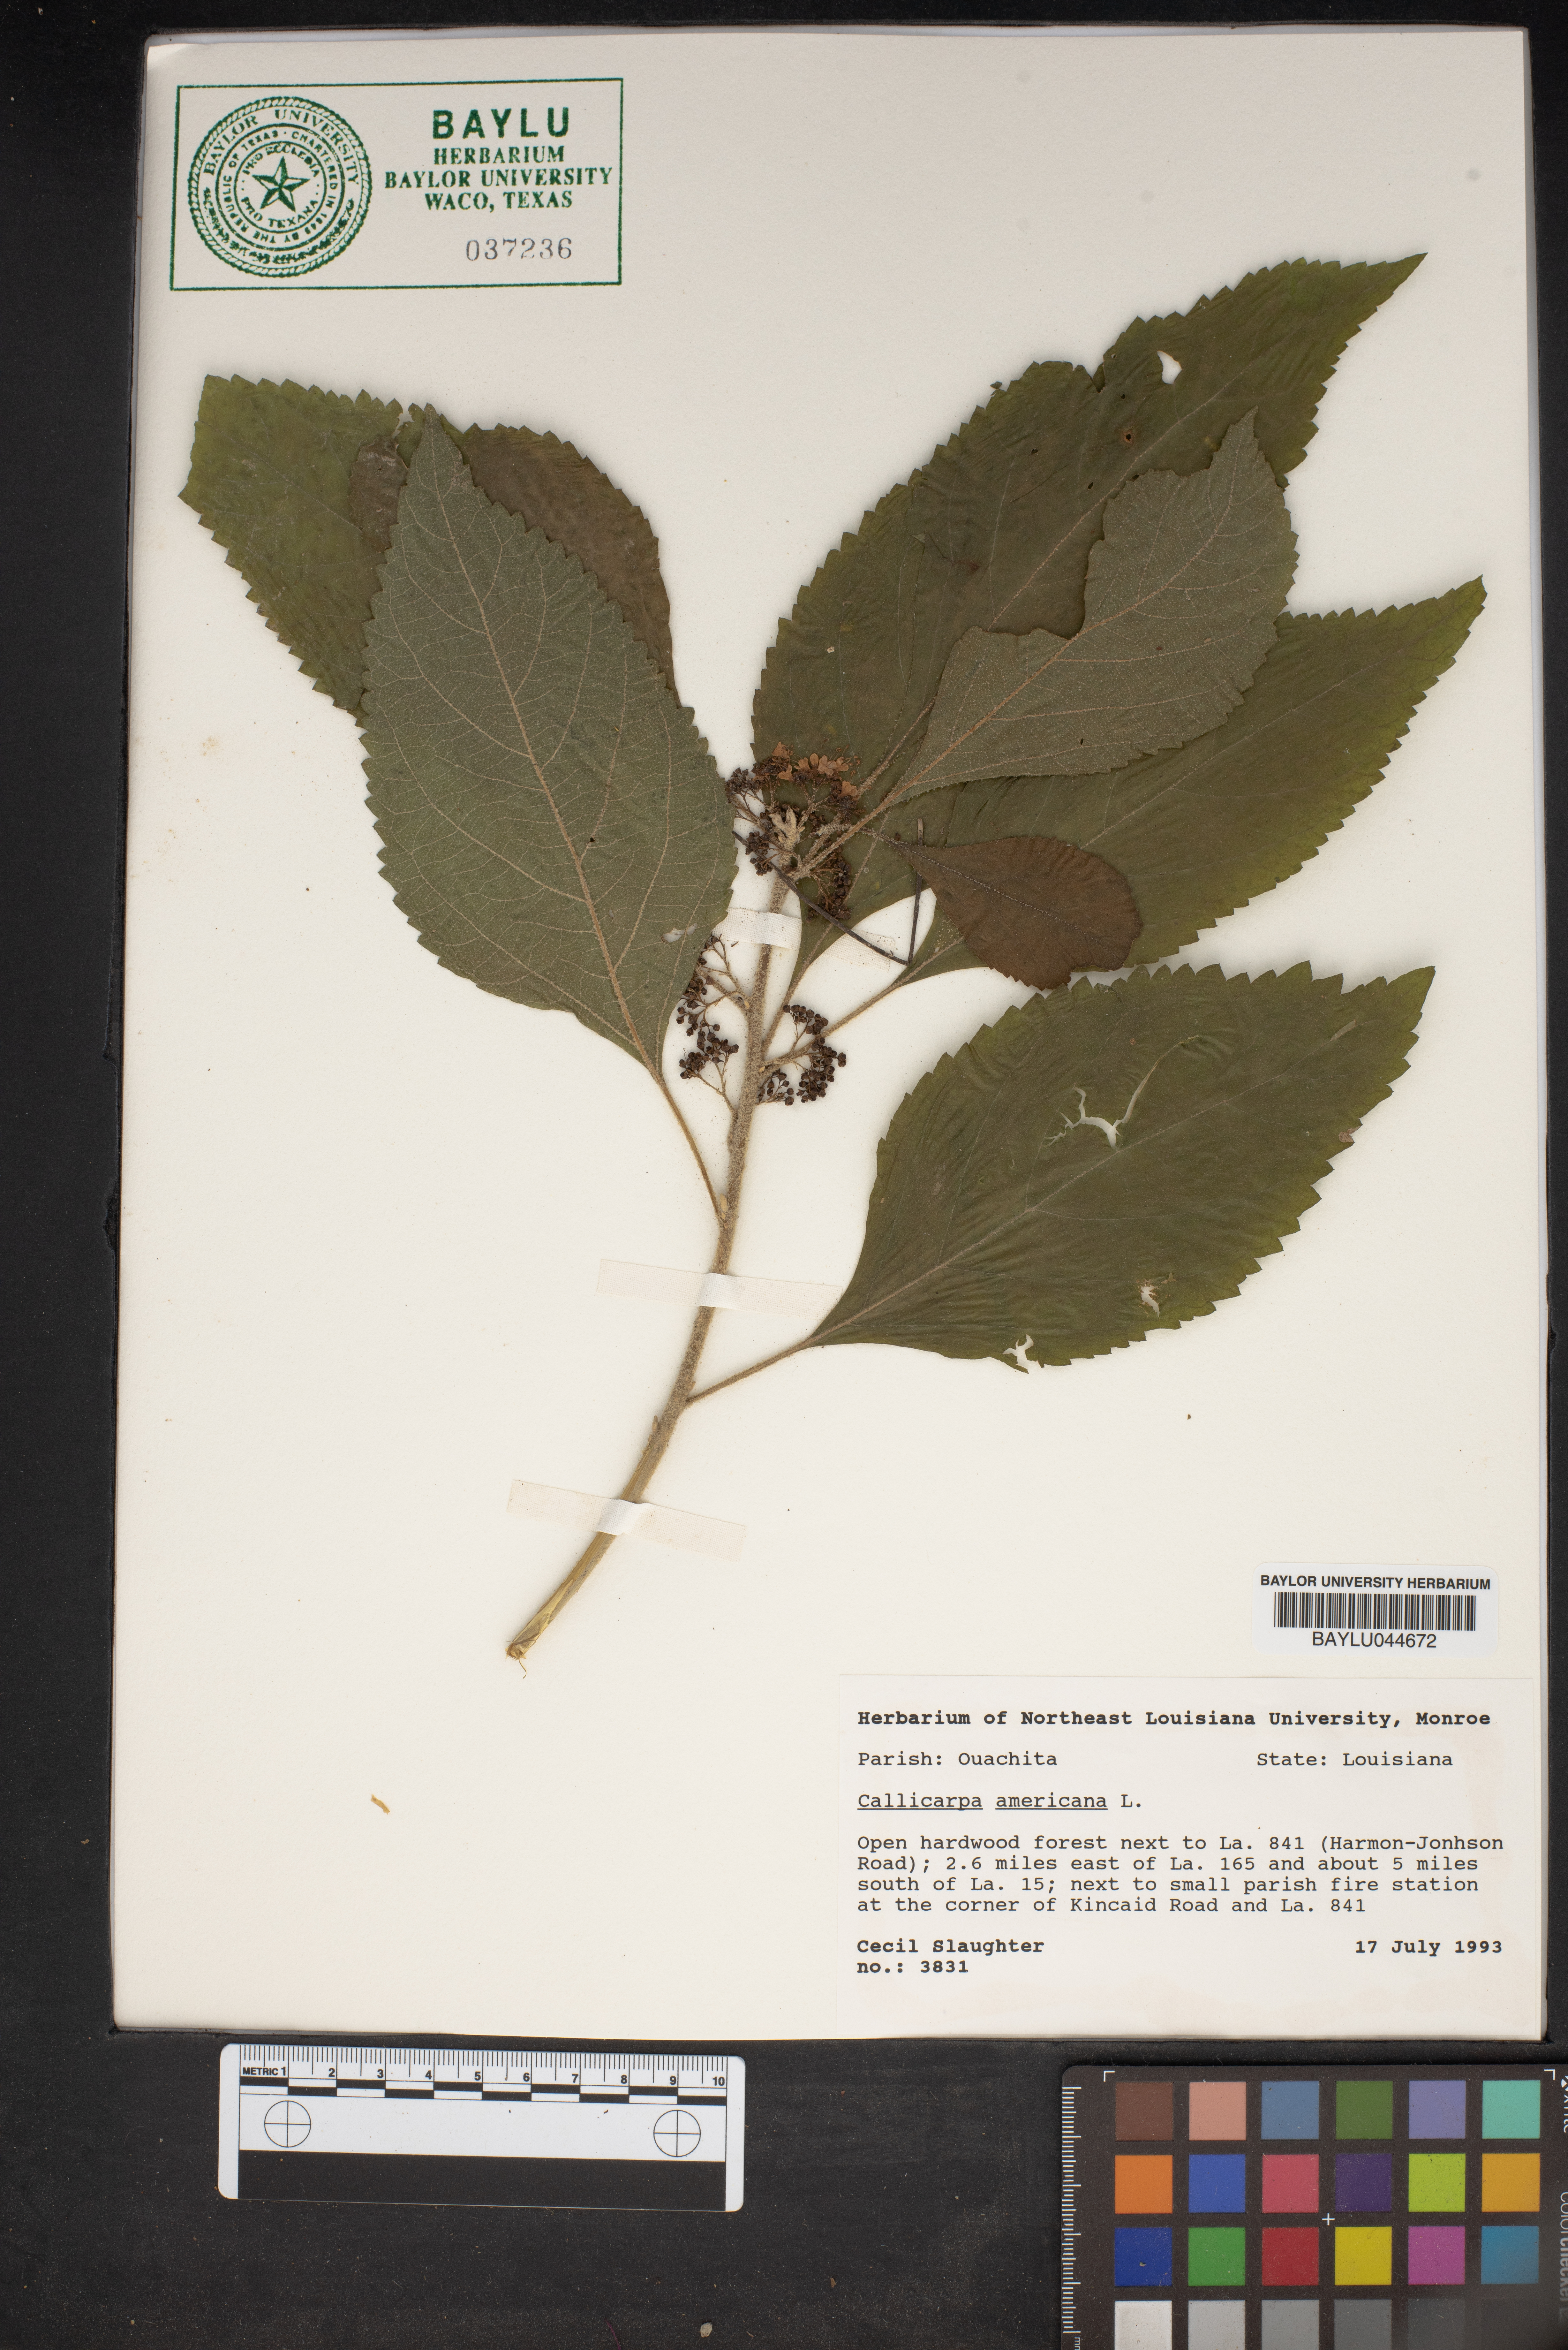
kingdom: Plantae
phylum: Tracheophyta
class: Magnoliopsida
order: Lamiales
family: Lamiaceae
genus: Callicarpa
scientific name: Callicarpa americana
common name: American beautyberry
